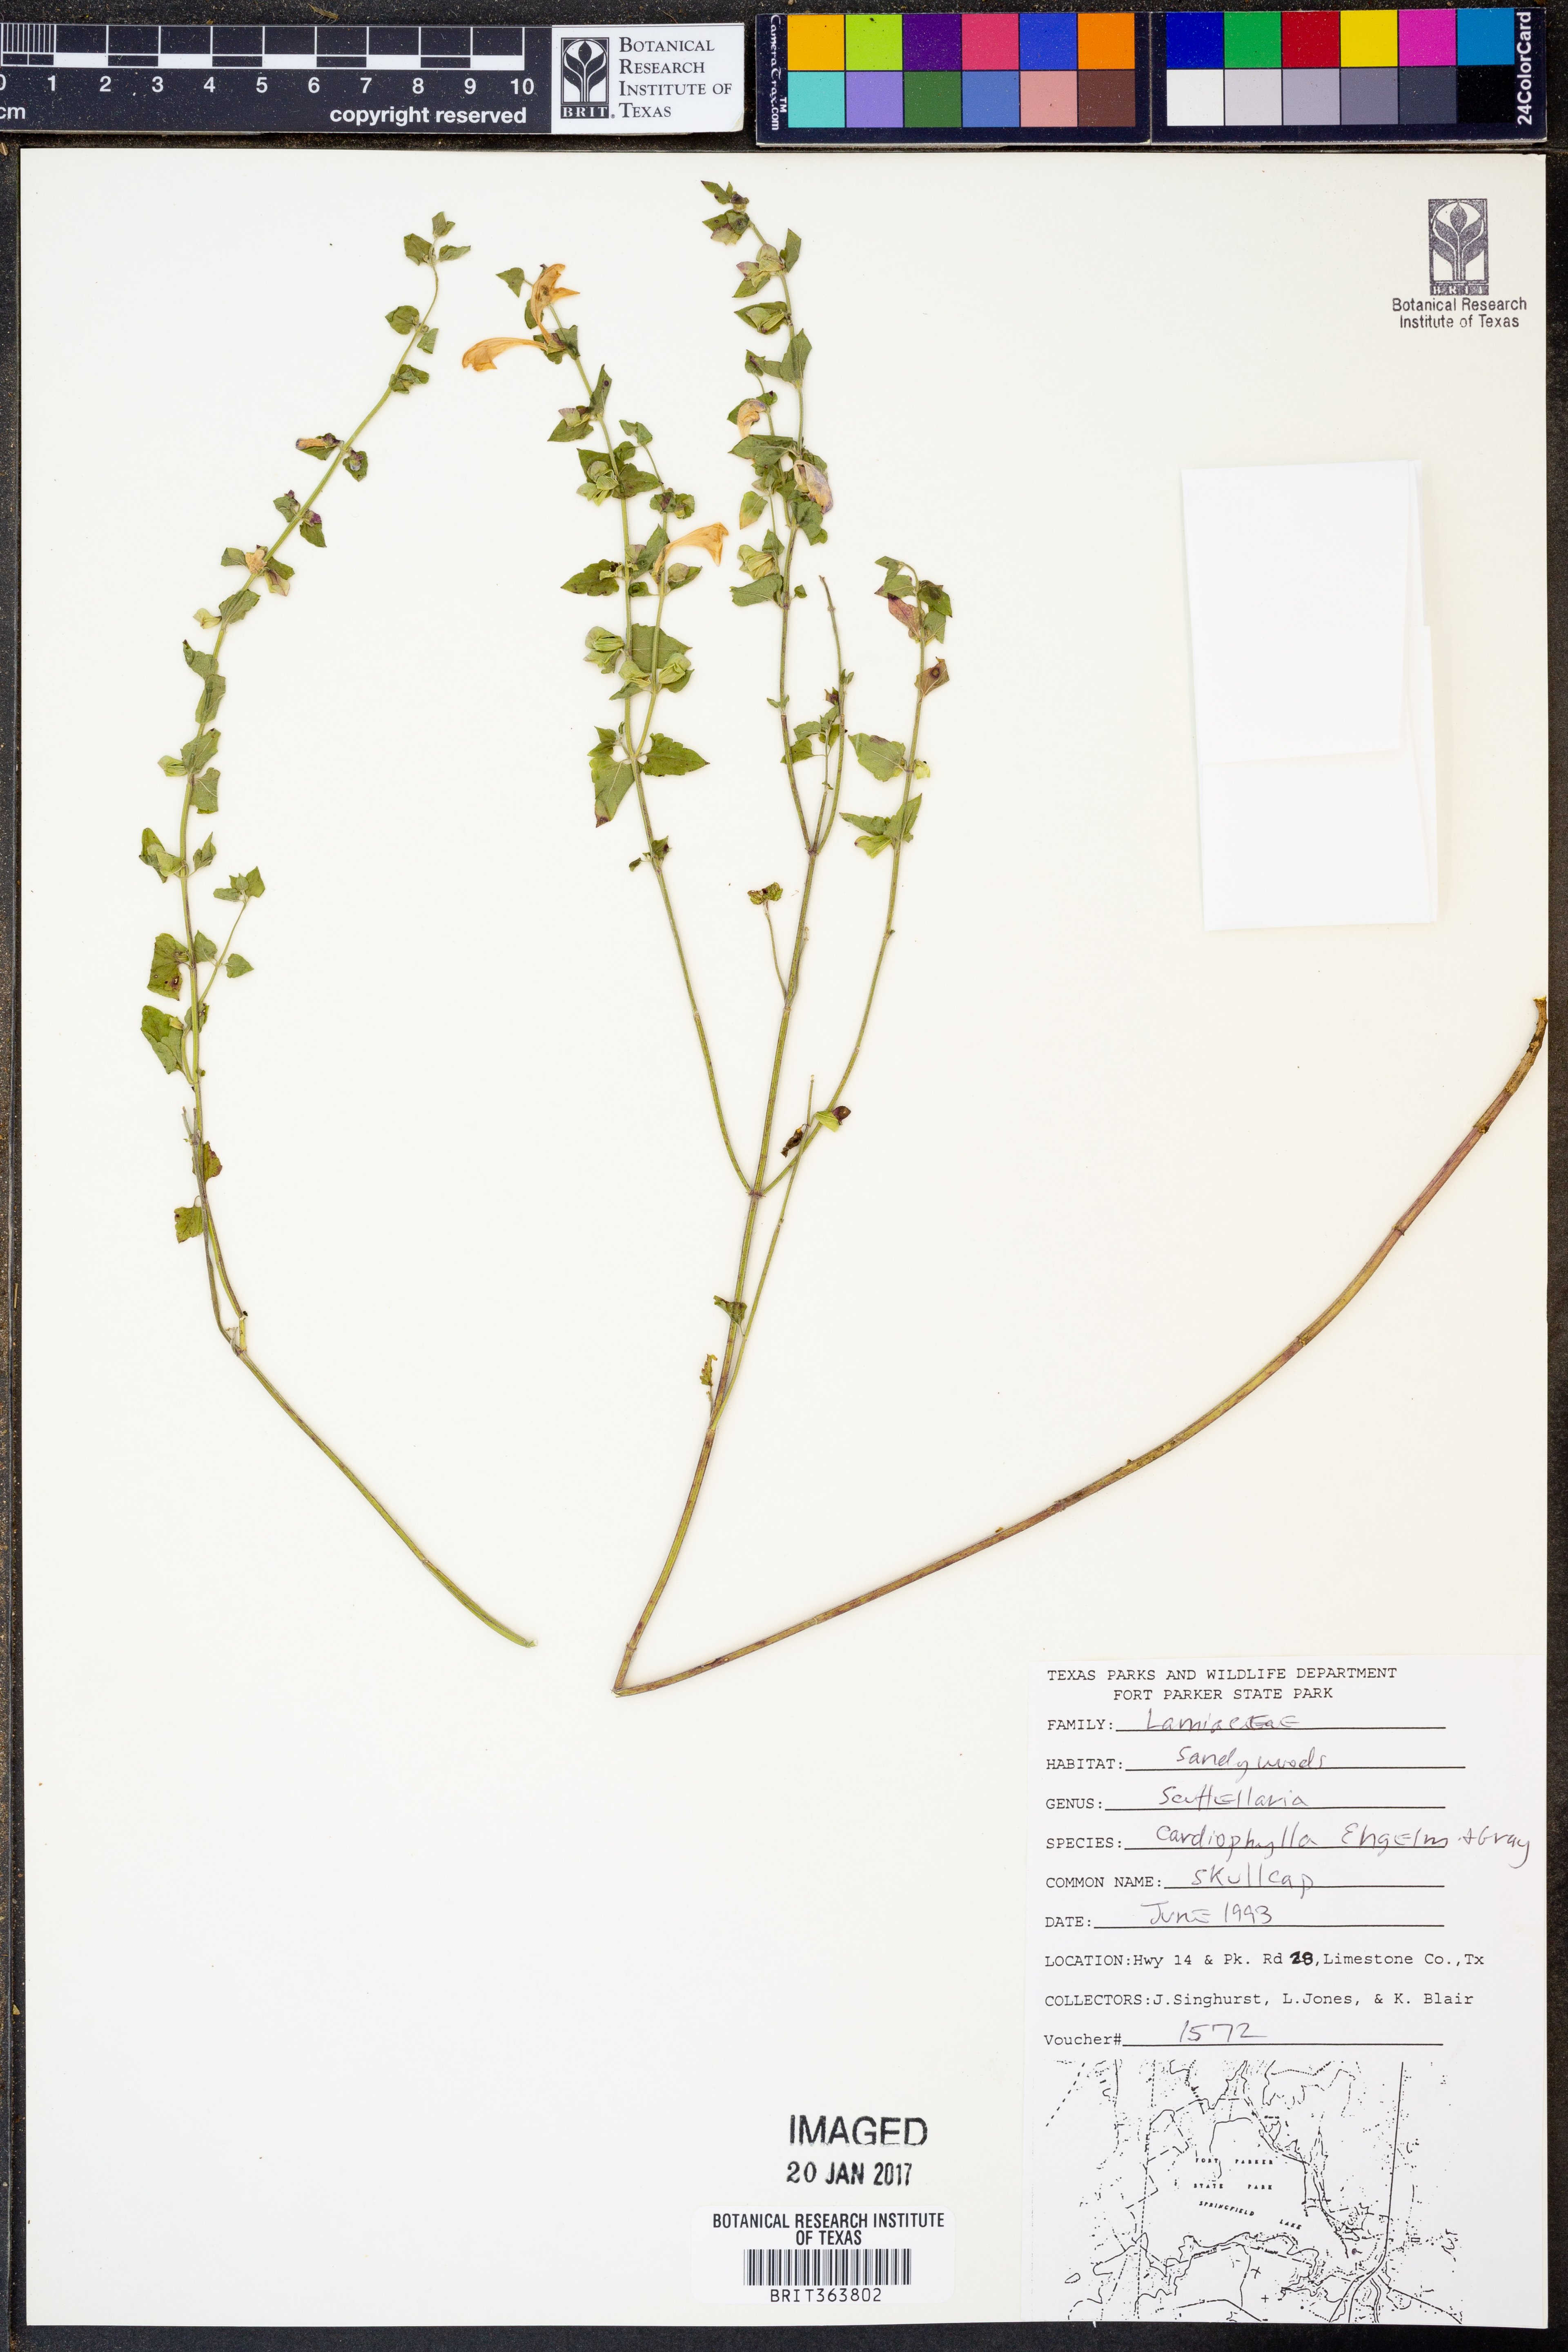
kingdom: Plantae
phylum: Tracheophyta
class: Magnoliopsida
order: Lamiales
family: Lamiaceae
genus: Scutellaria
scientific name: Scutellaria cardiophylla
